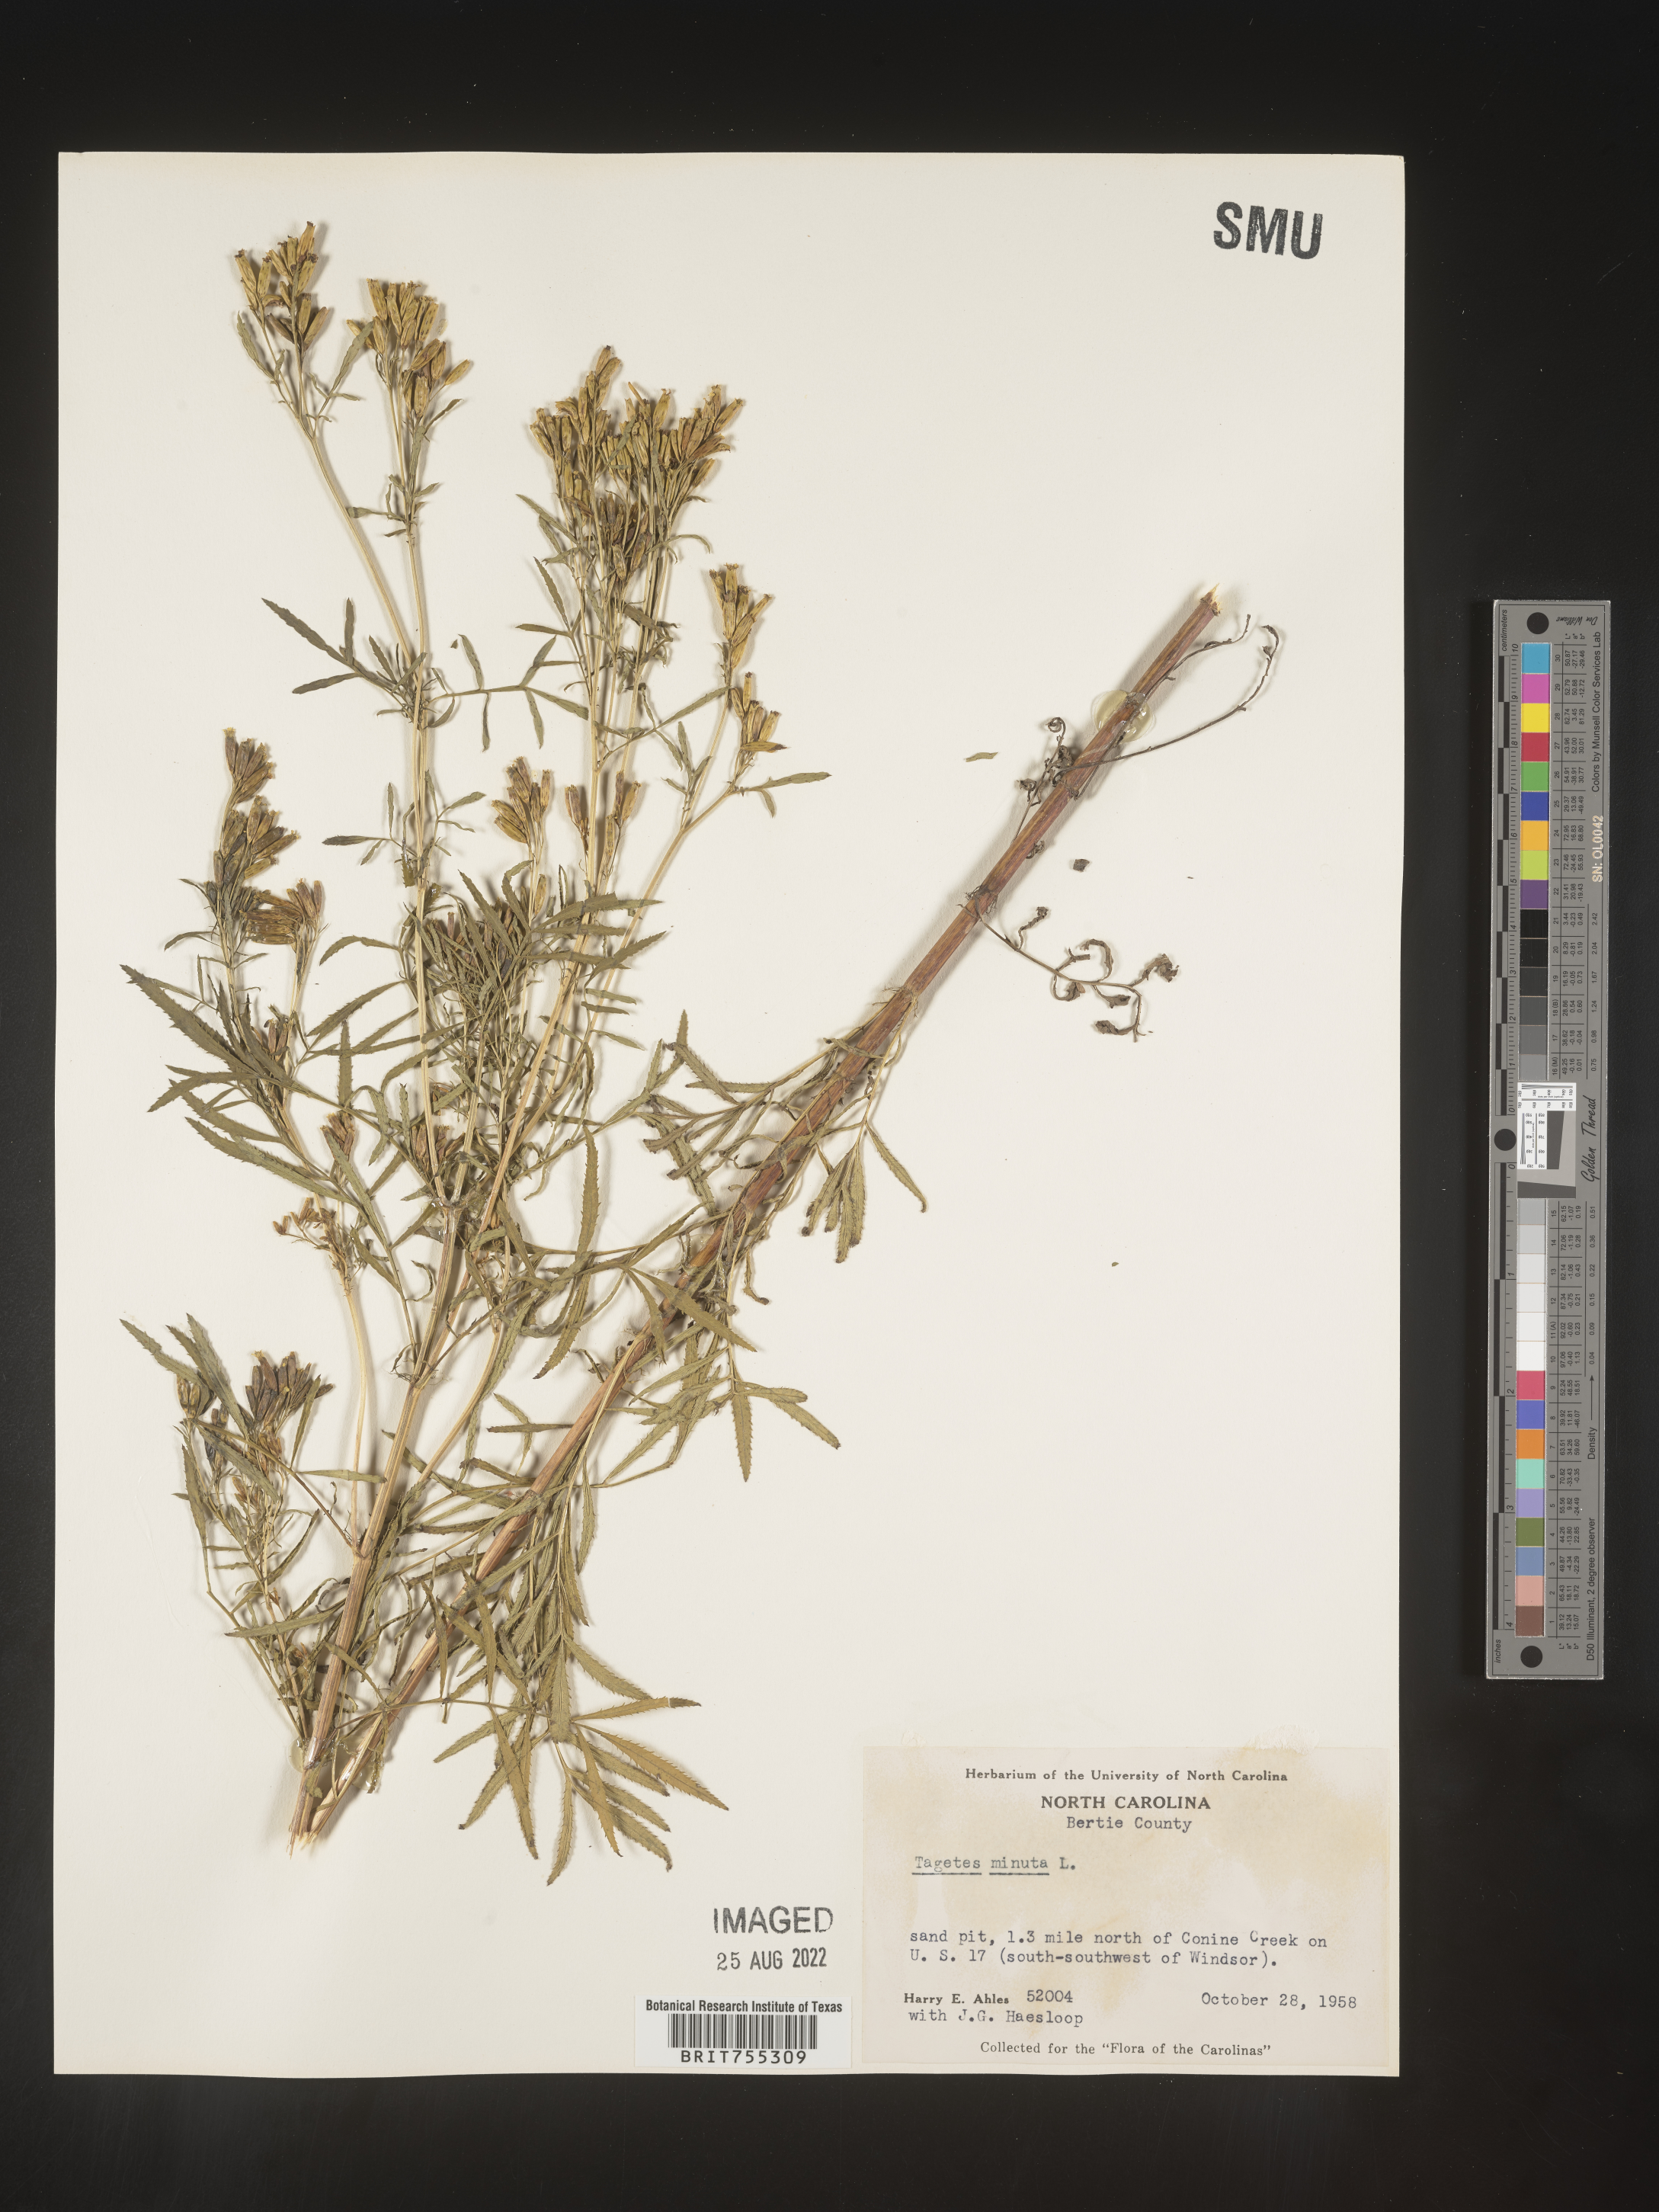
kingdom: Plantae
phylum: Tracheophyta
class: Magnoliopsida
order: Asterales
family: Asteraceae
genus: Tagetes
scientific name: Tagetes
